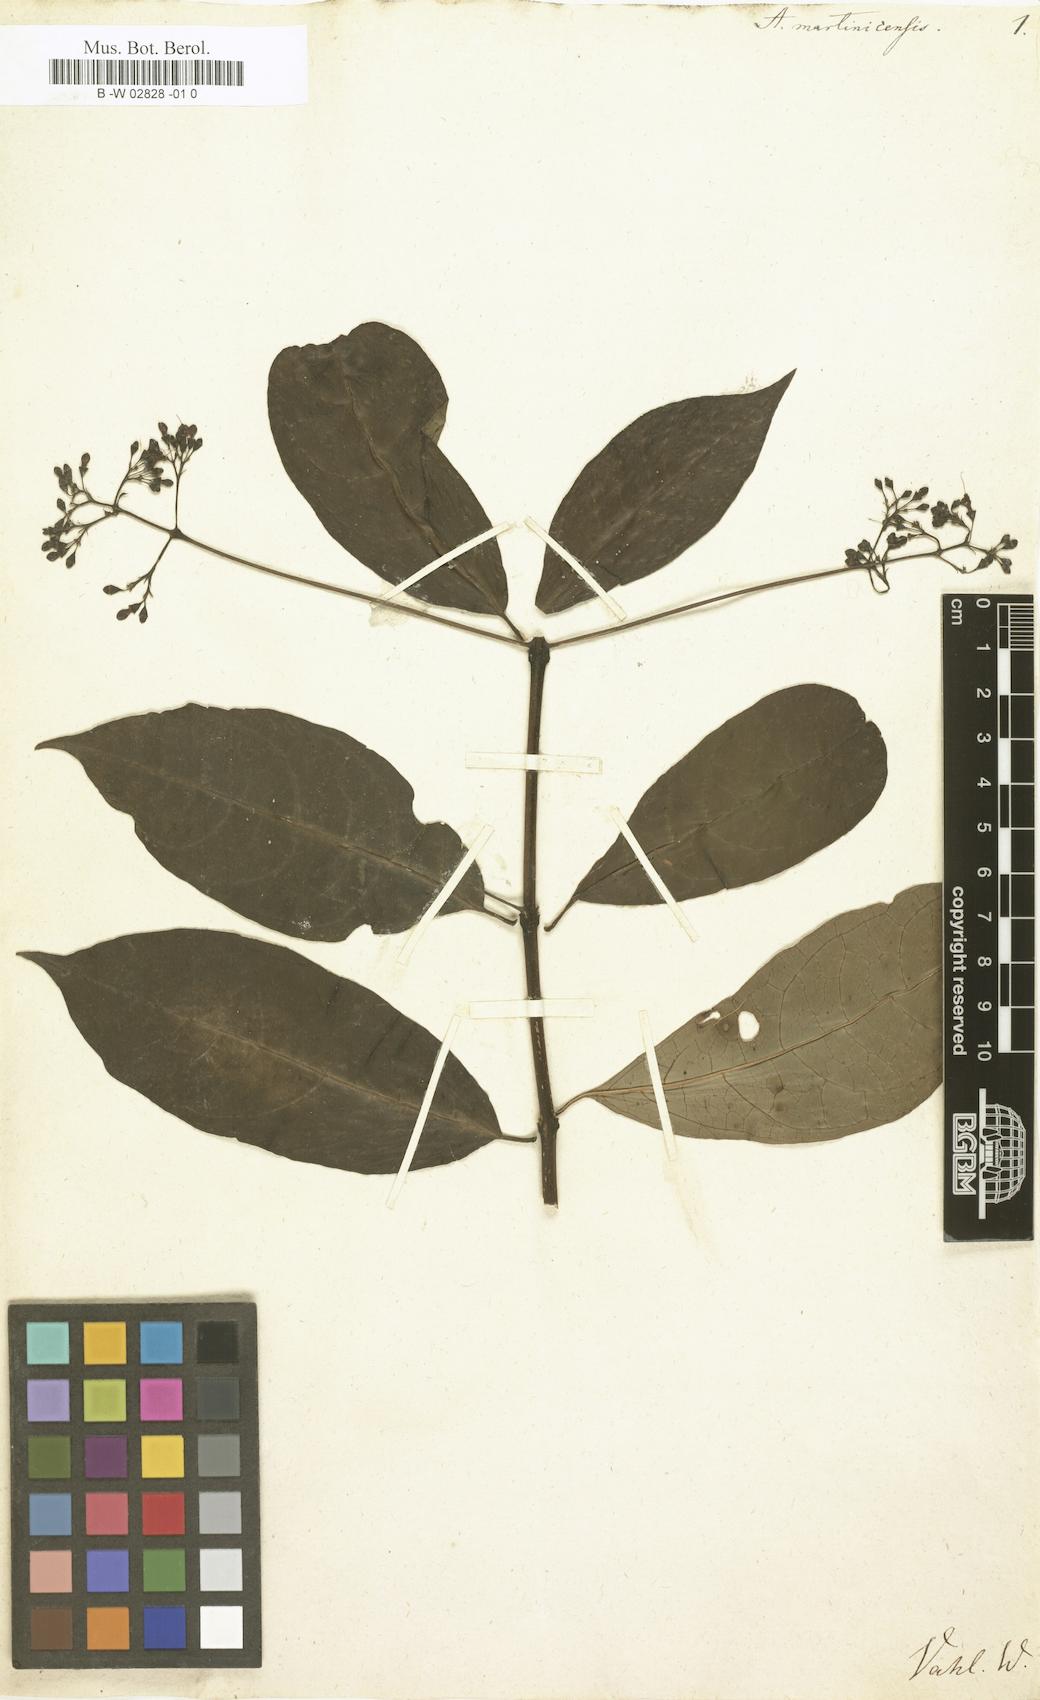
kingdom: Plantae
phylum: Tracheophyta
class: Magnoliopsida
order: Lamiales
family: Lamiaceae
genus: Aegiphila
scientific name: Aegiphila martinicensis
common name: Bastard whiteroot
